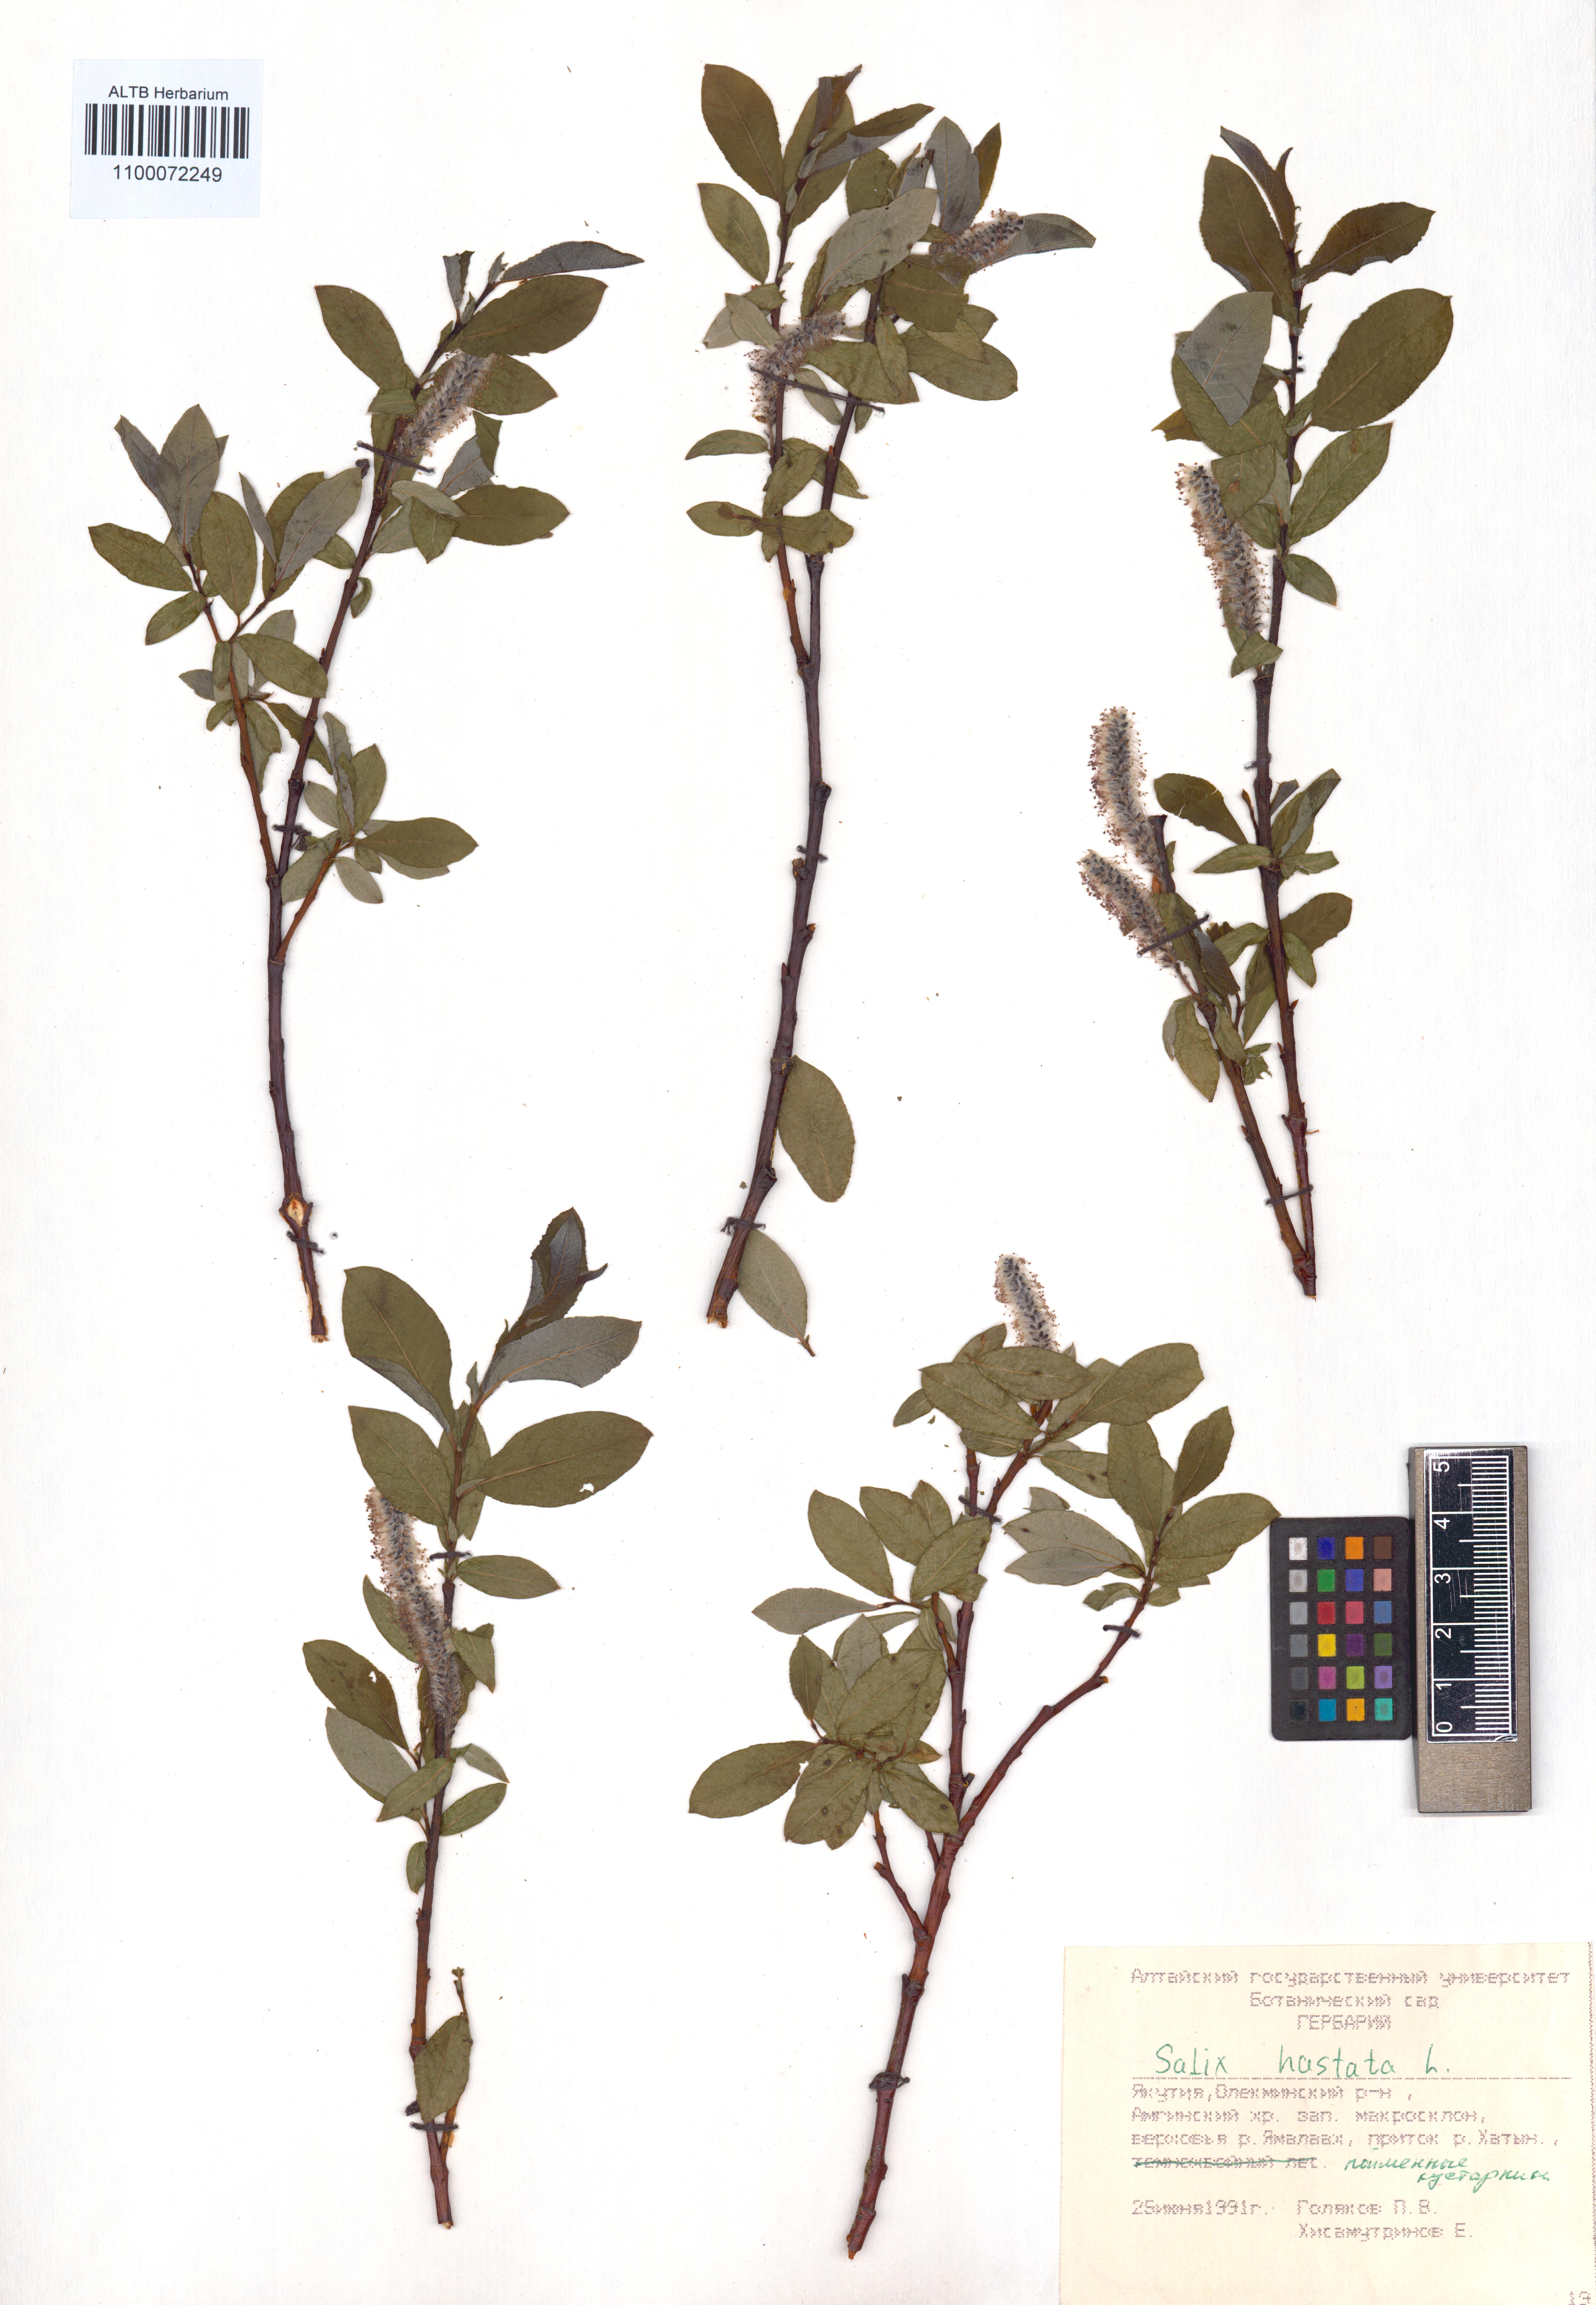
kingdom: Plantae
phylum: Tracheophyta
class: Magnoliopsida
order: Malpighiales
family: Salicaceae
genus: Salix
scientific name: Salix hastata
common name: Halberd willow
